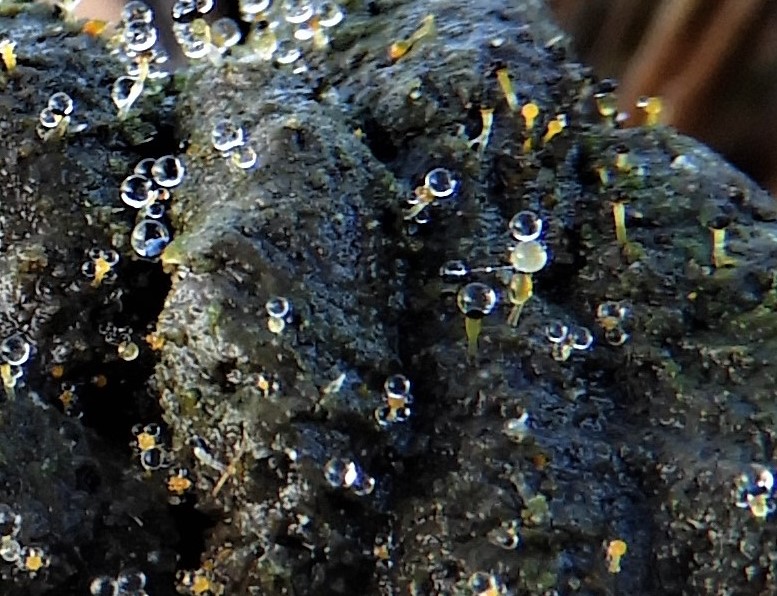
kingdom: Fungi
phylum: Mucoromycota
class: Mucoromycetes
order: Mucorales
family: Pilobolaceae
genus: Pilobolus
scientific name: Pilobolus
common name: boldkaster
